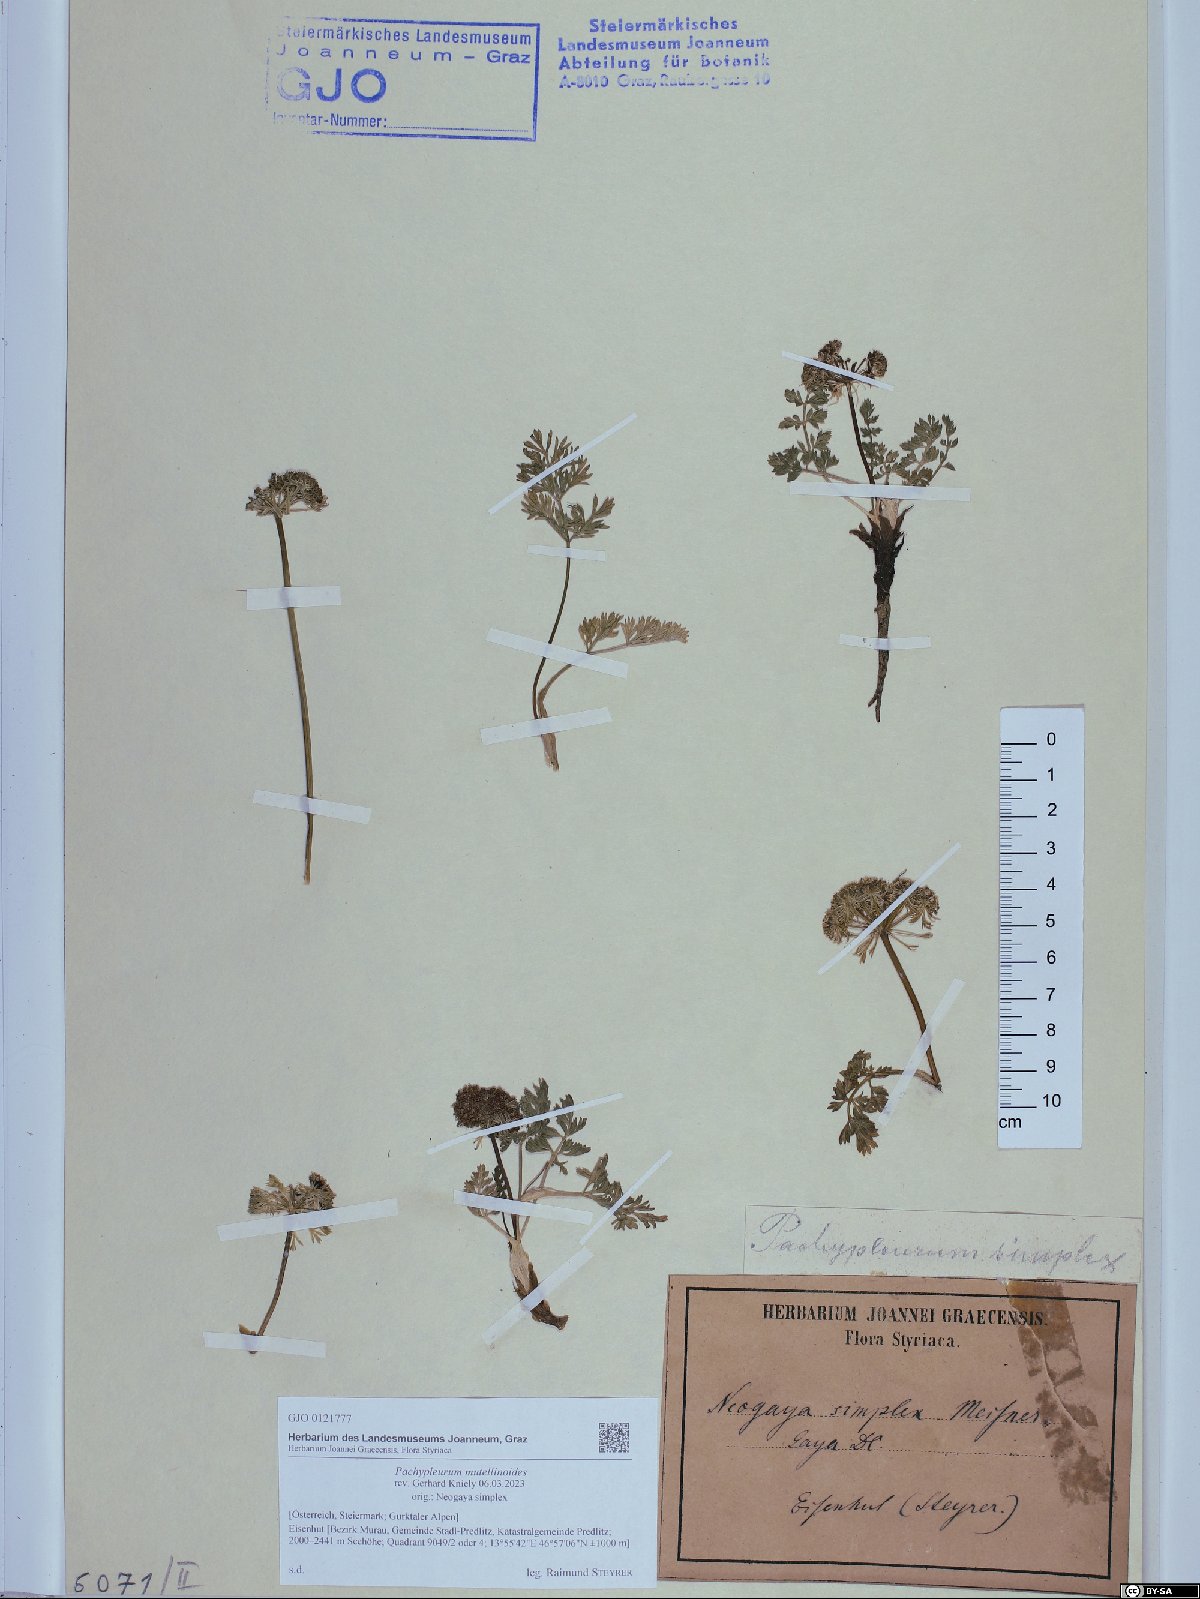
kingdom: Plantae
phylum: Tracheophyta
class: Magnoliopsida
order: Apiales
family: Apiaceae
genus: Pachypleurum
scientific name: Pachypleurum mutellinoides
